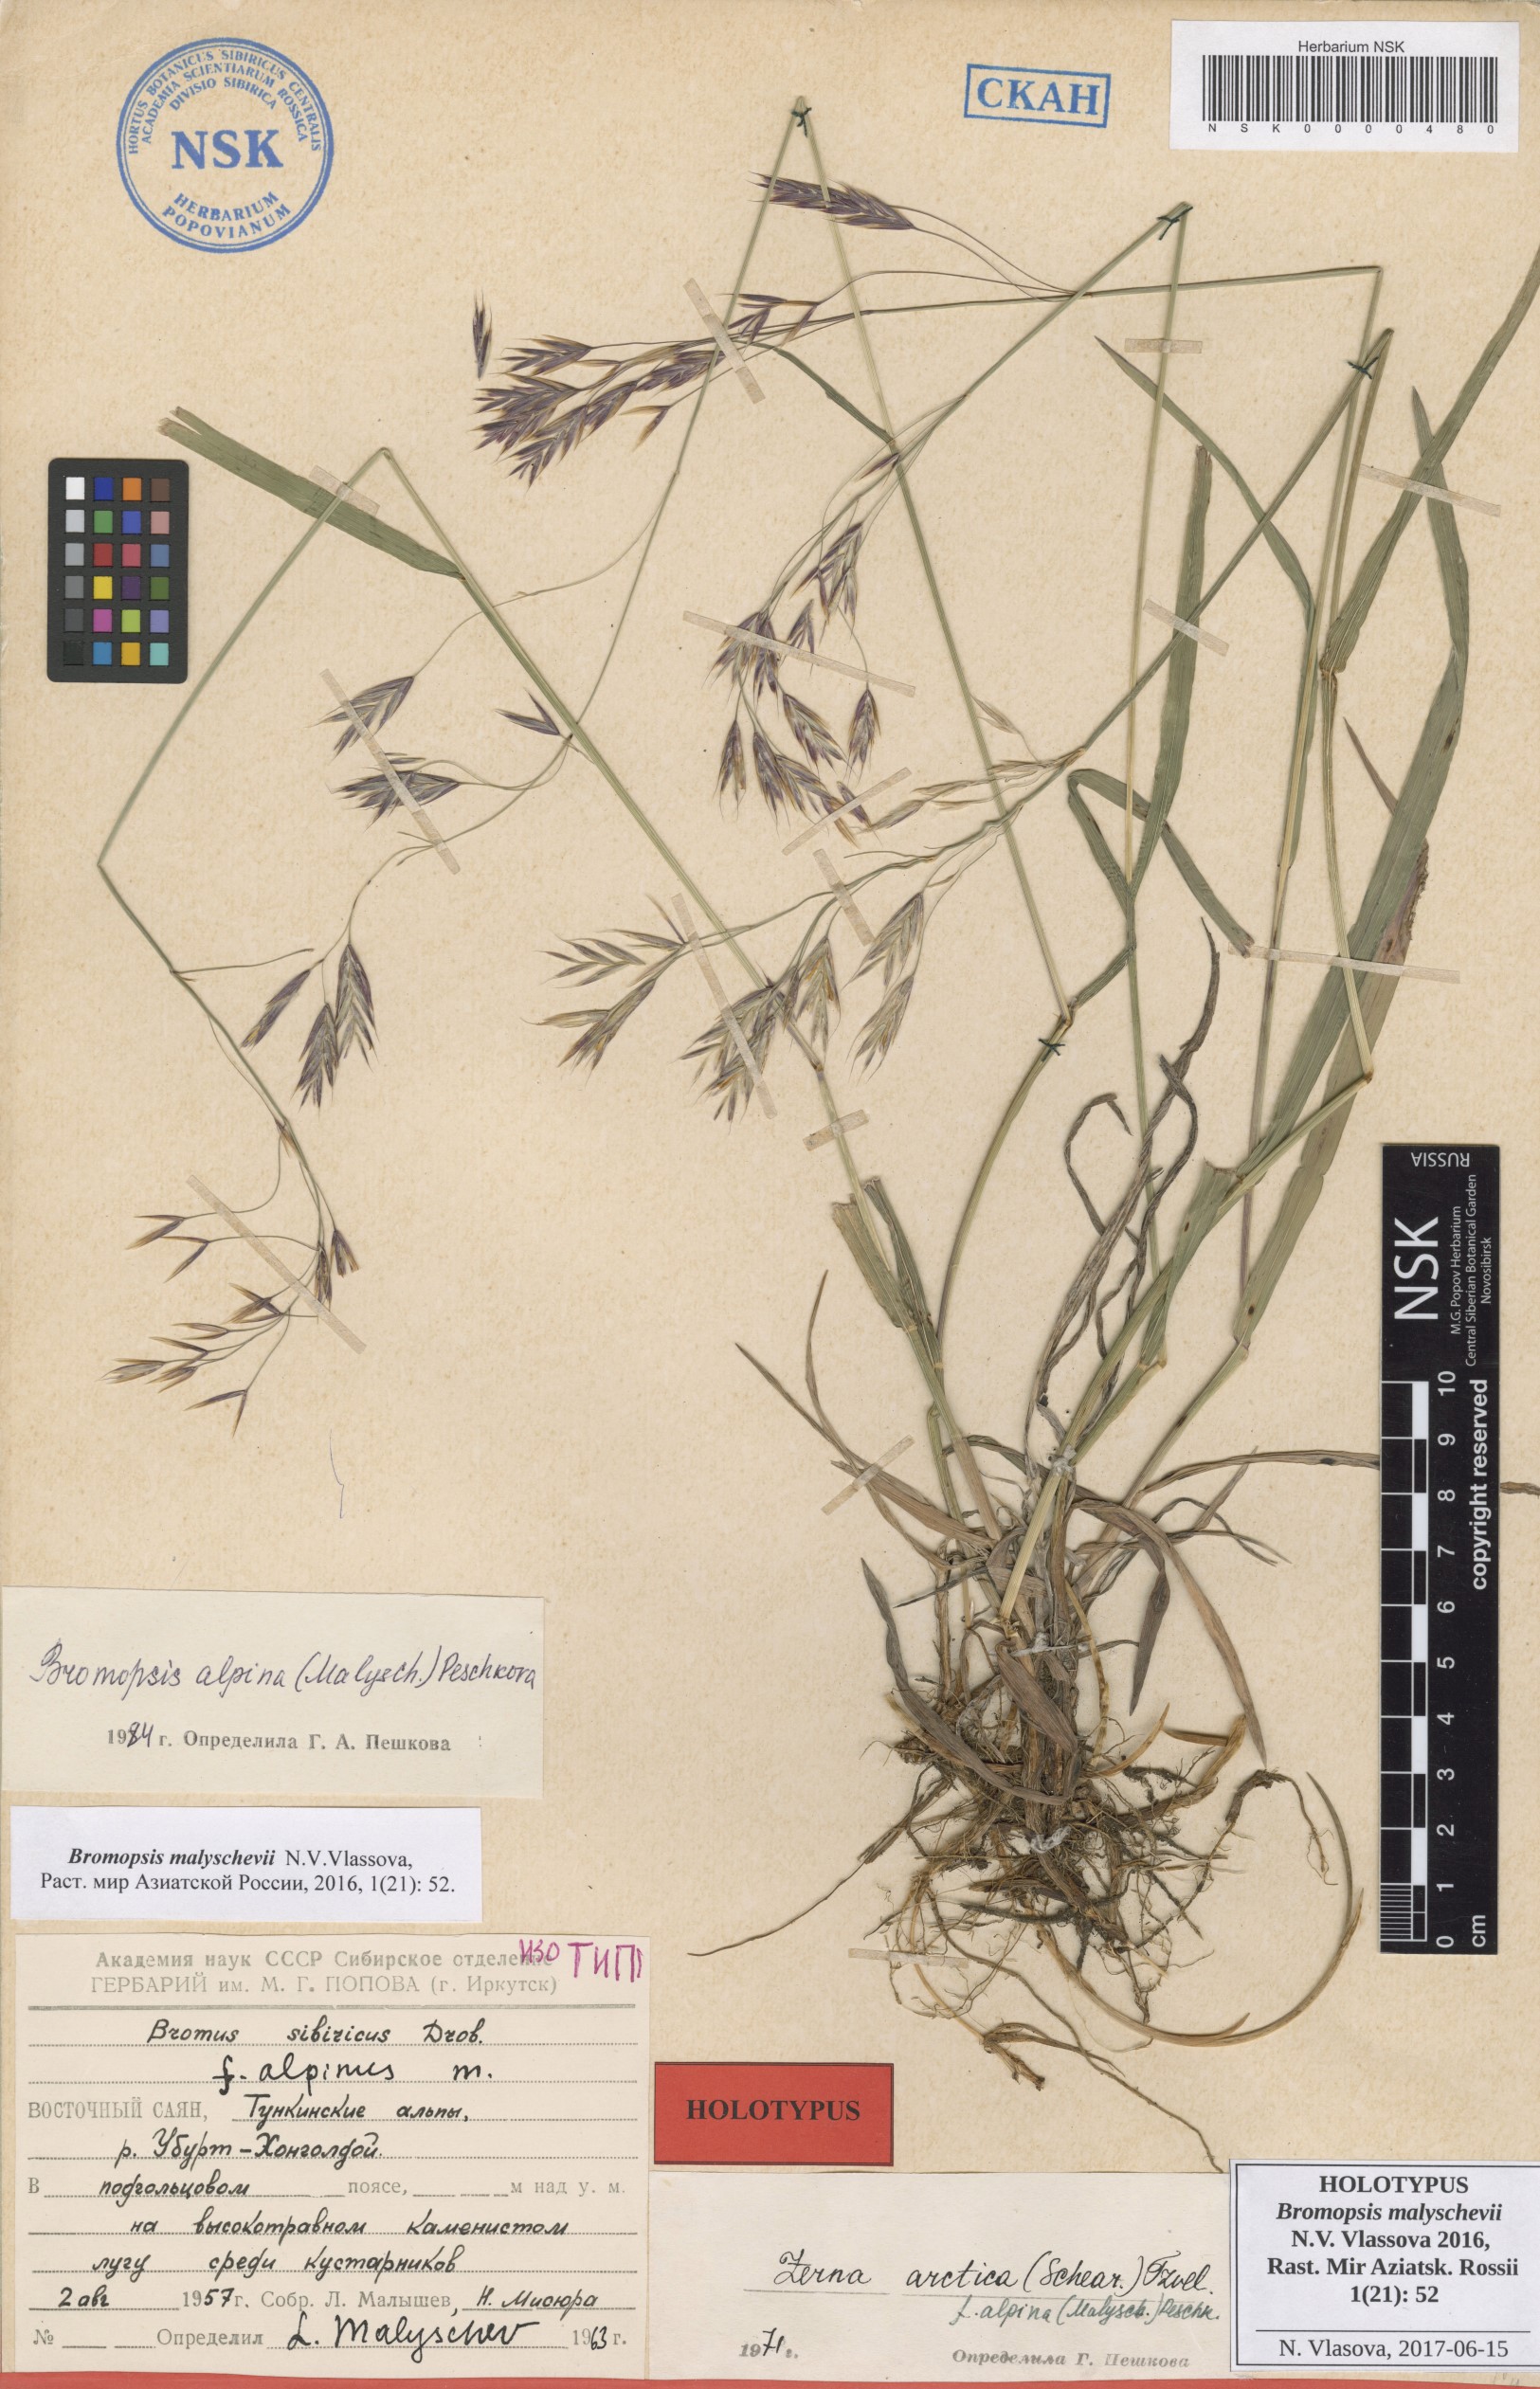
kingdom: Plantae
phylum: Tracheophyta
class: Liliopsida
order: Poales
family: Poaceae
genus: Bromus
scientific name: Bromus Bromopsis malyschevii
